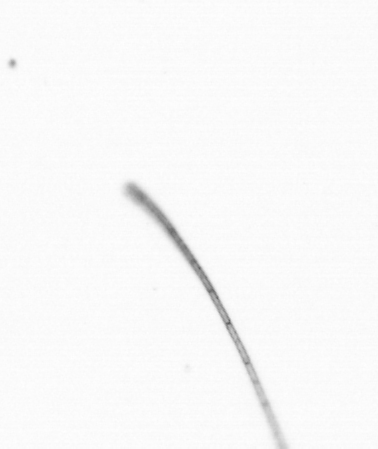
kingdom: Chromista
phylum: Ochrophyta
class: Bacillariophyceae
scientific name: Bacillariophyceae
